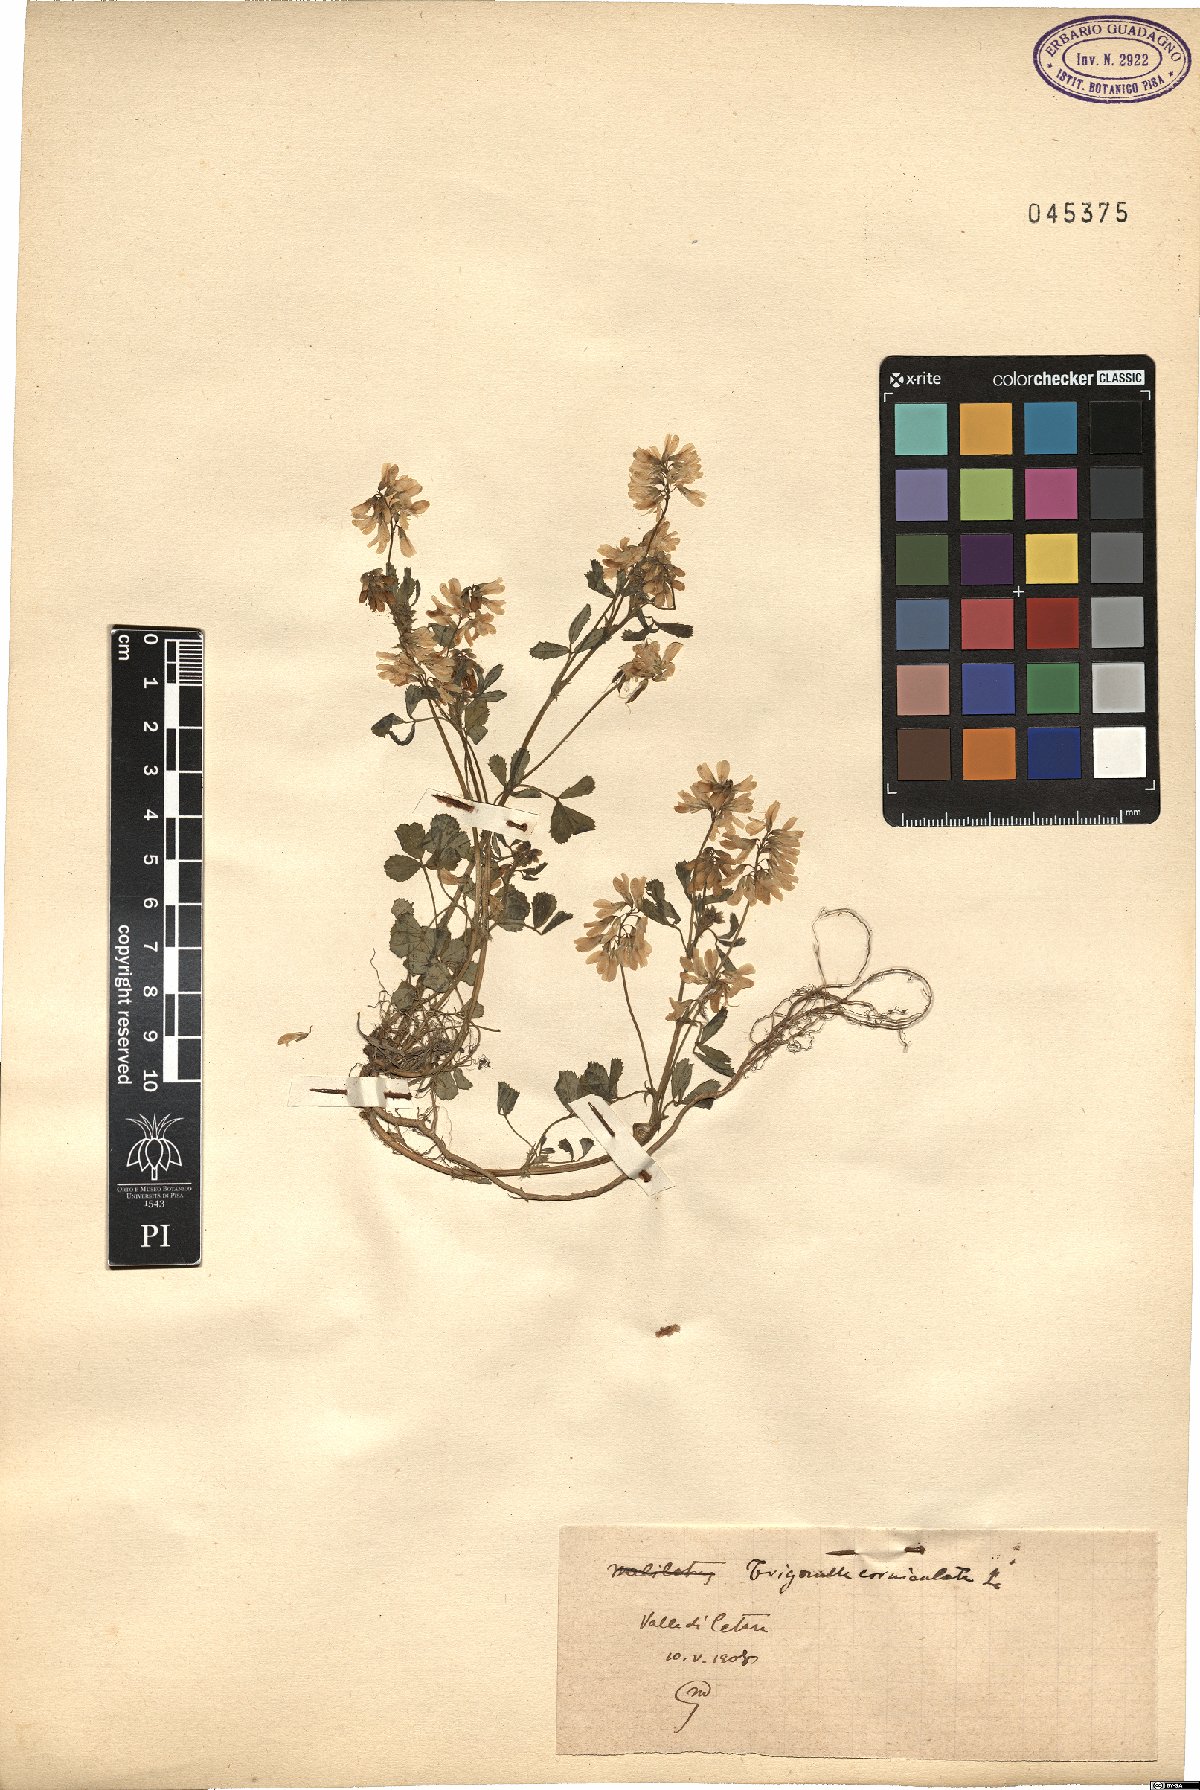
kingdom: Plantae
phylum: Tracheophyta
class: Magnoliopsida
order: Fabales
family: Fabaceae
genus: Trigonella
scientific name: Trigonella balansae
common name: Sickle-fruited fenugreek
